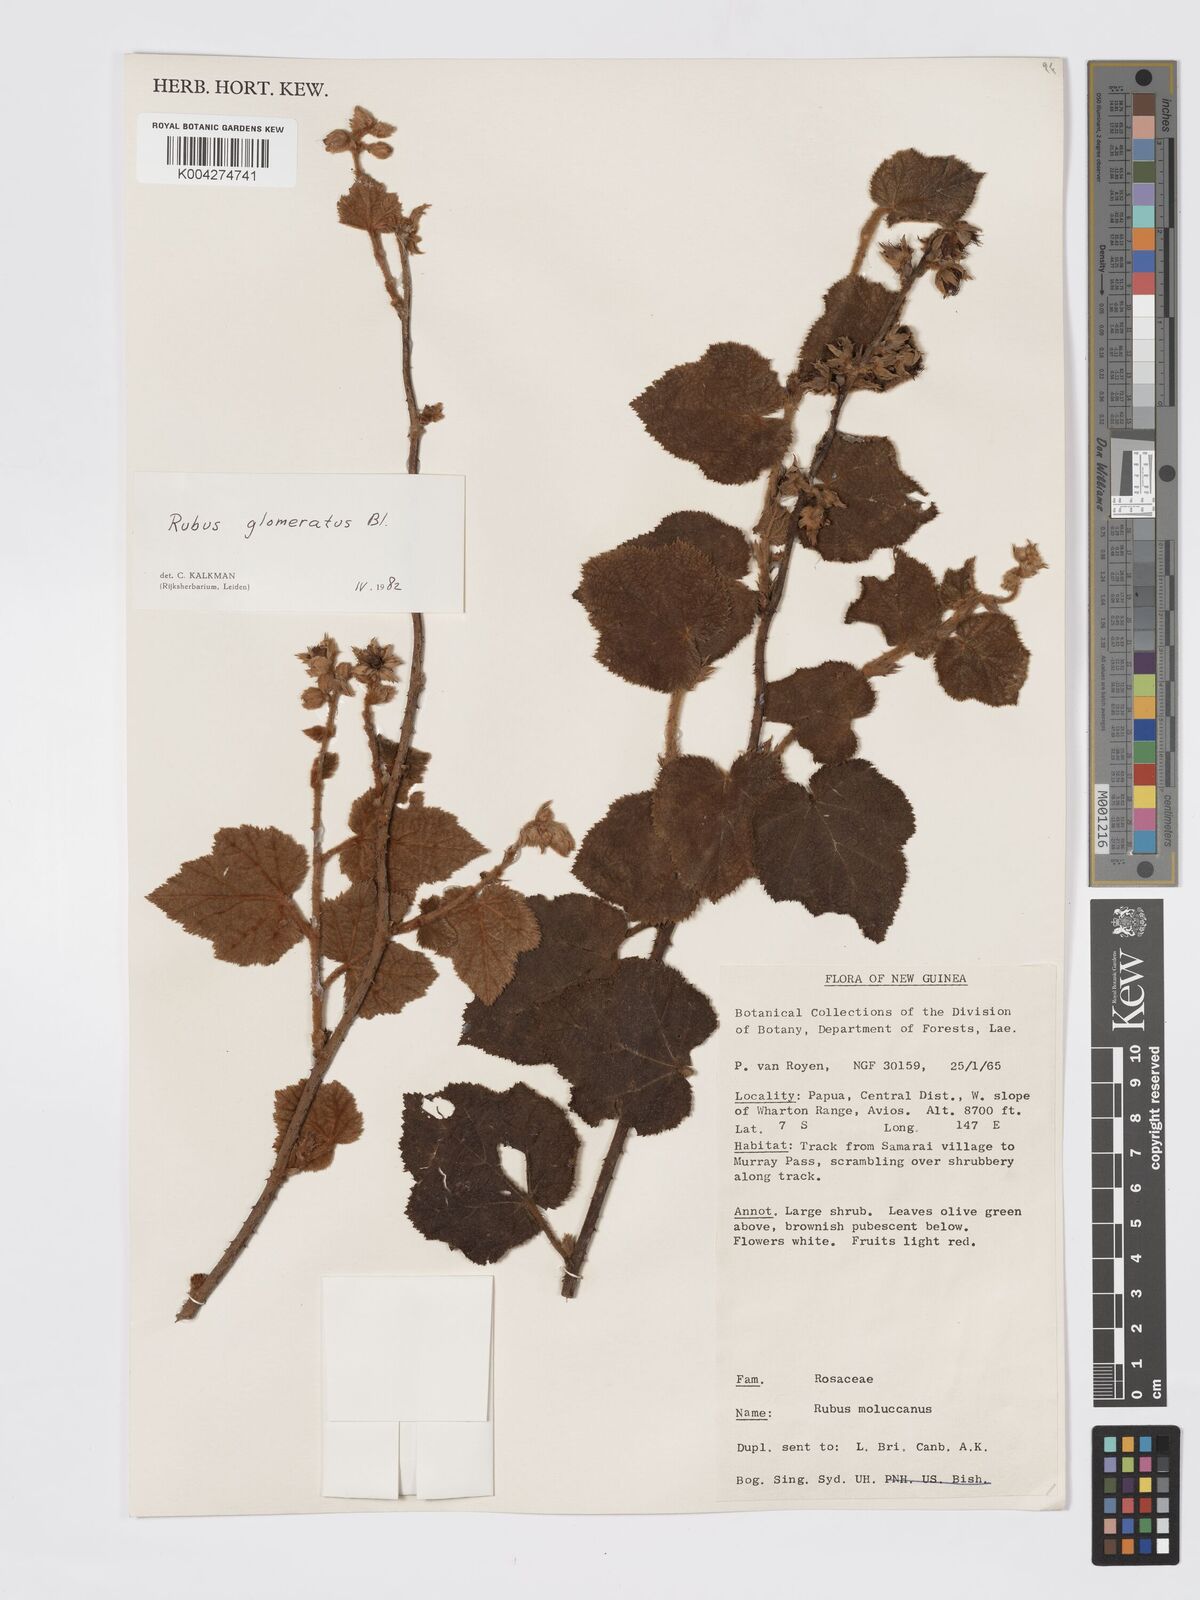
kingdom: Plantae
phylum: Tracheophyta
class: Magnoliopsida
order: Rosales
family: Rosaceae
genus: Rubus
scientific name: Rubus
